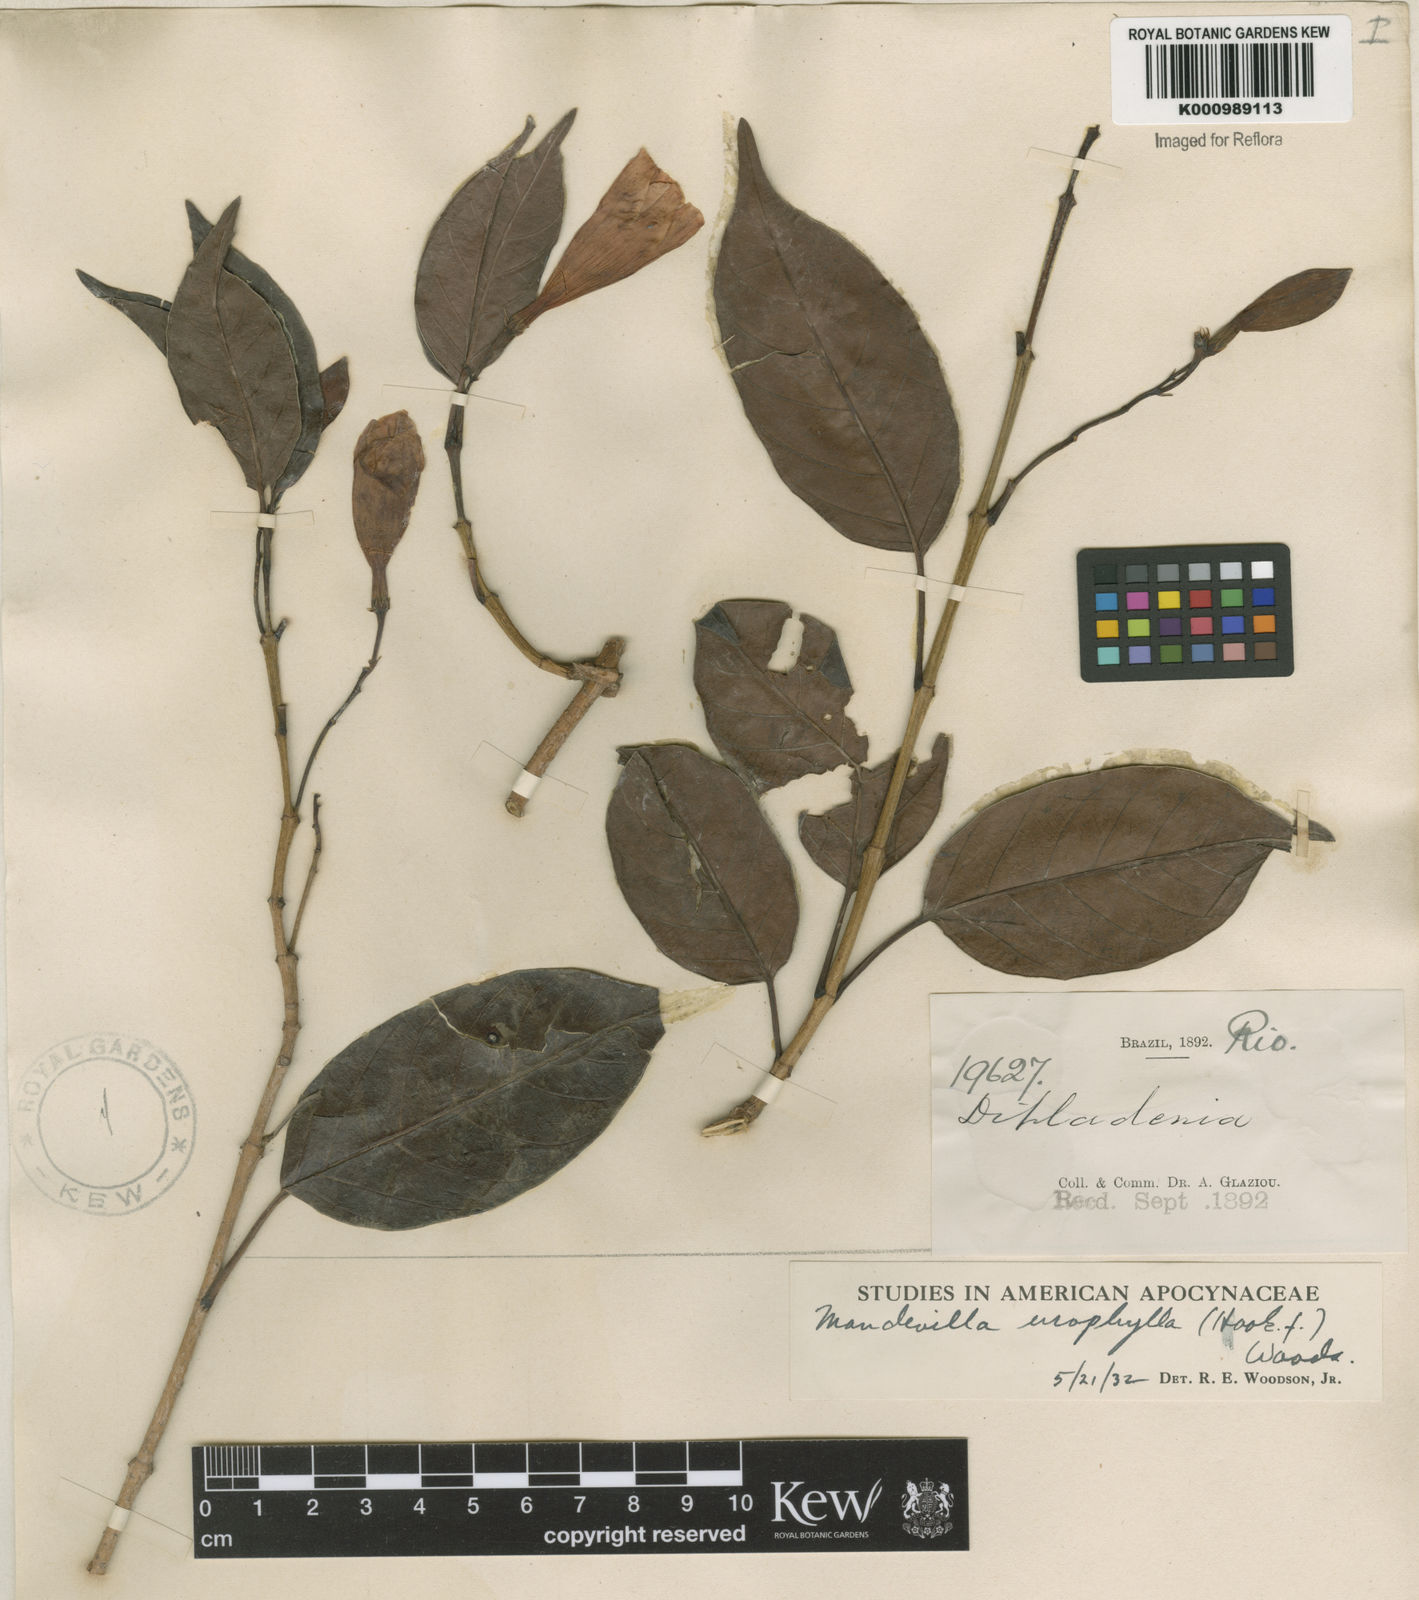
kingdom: Plantae
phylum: Tracheophyta
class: Magnoliopsida
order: Gentianales
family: Apocynaceae
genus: Mandevilla
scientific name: Mandevilla urophylla
